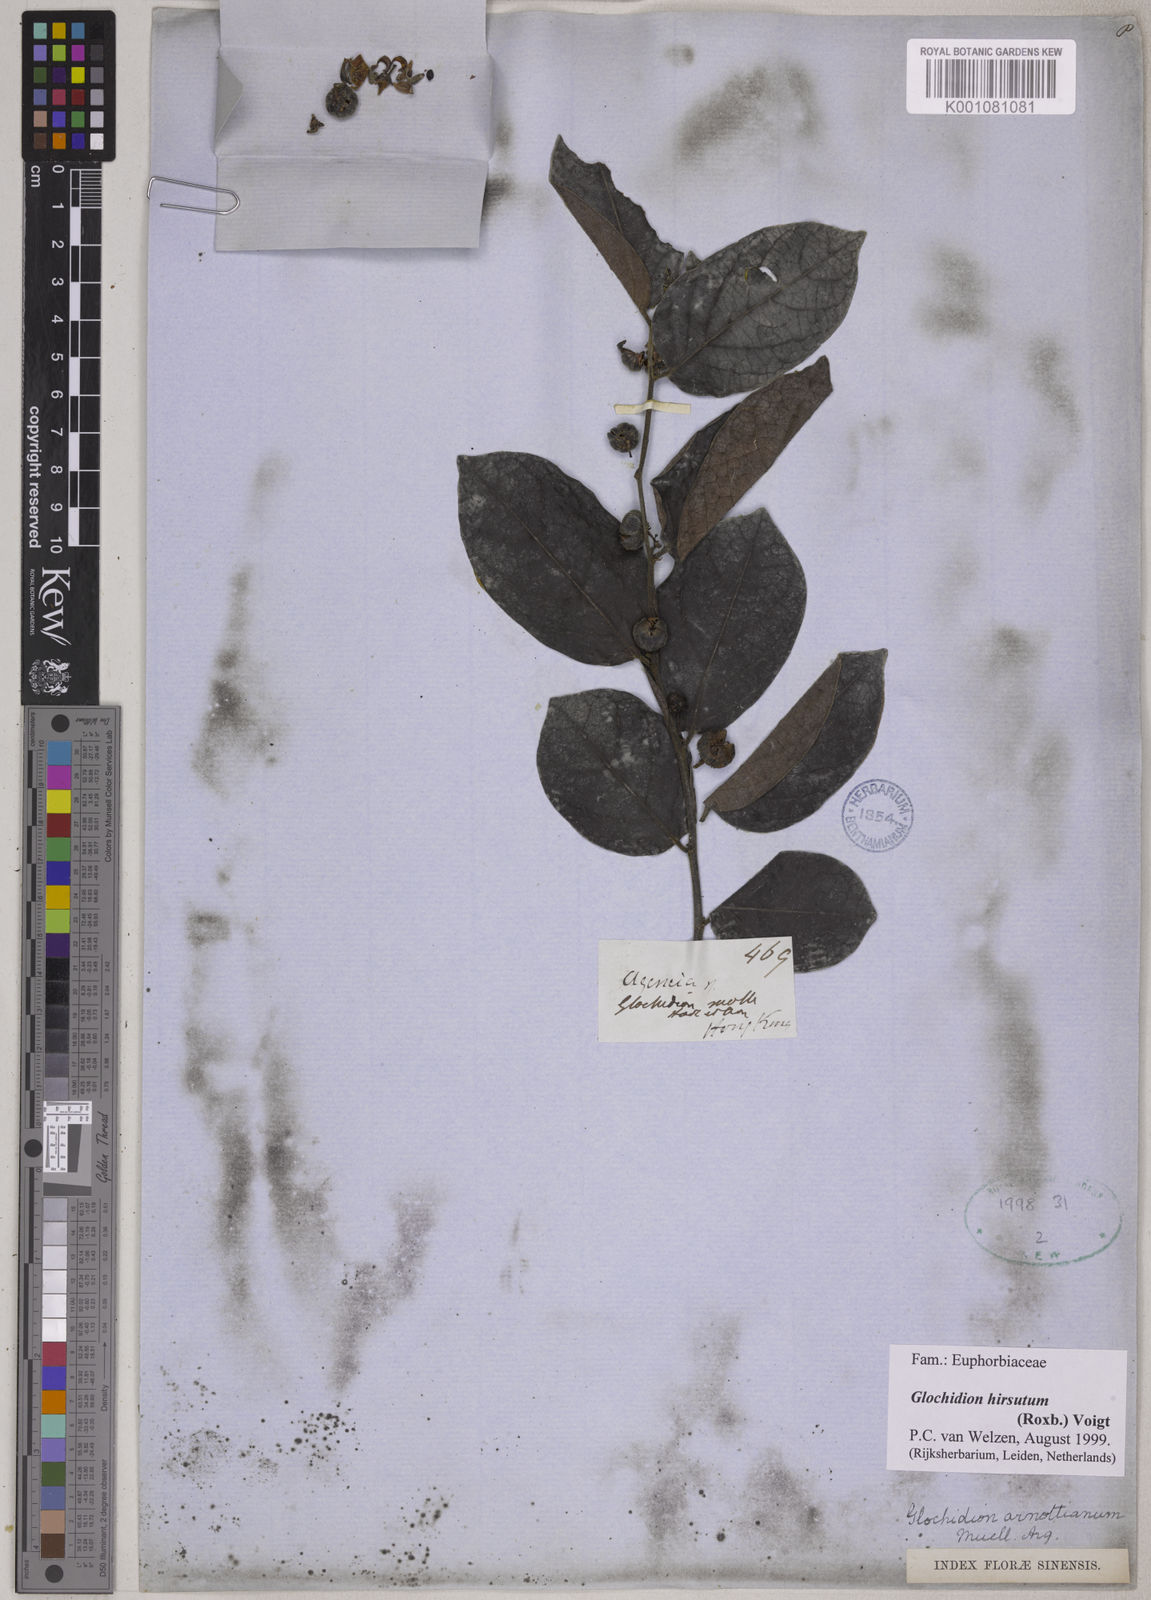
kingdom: Plantae
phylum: Tracheophyta
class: Magnoliopsida
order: Malpighiales
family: Phyllanthaceae
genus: Glochidion
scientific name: Glochidion zeylanicum
